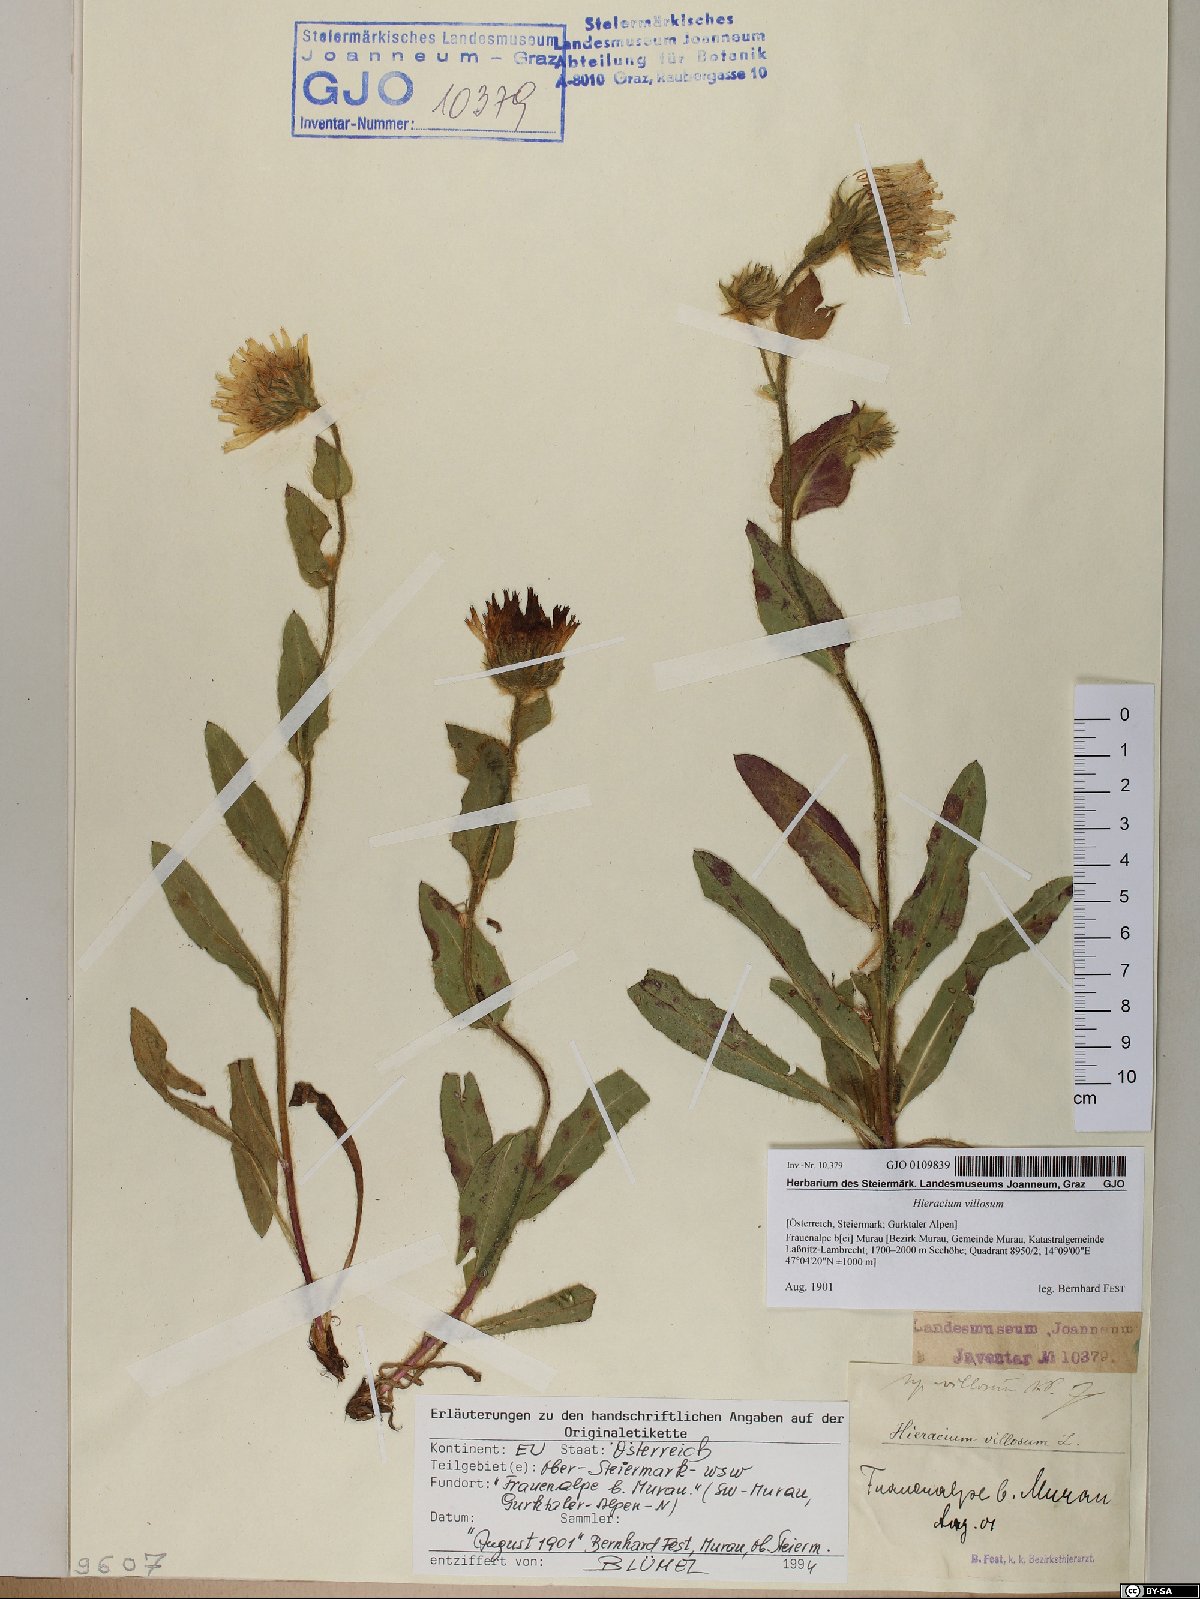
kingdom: Plantae
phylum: Tracheophyta
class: Magnoliopsida
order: Asterales
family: Asteraceae
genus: Hieracium
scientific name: Hieracium villosum
